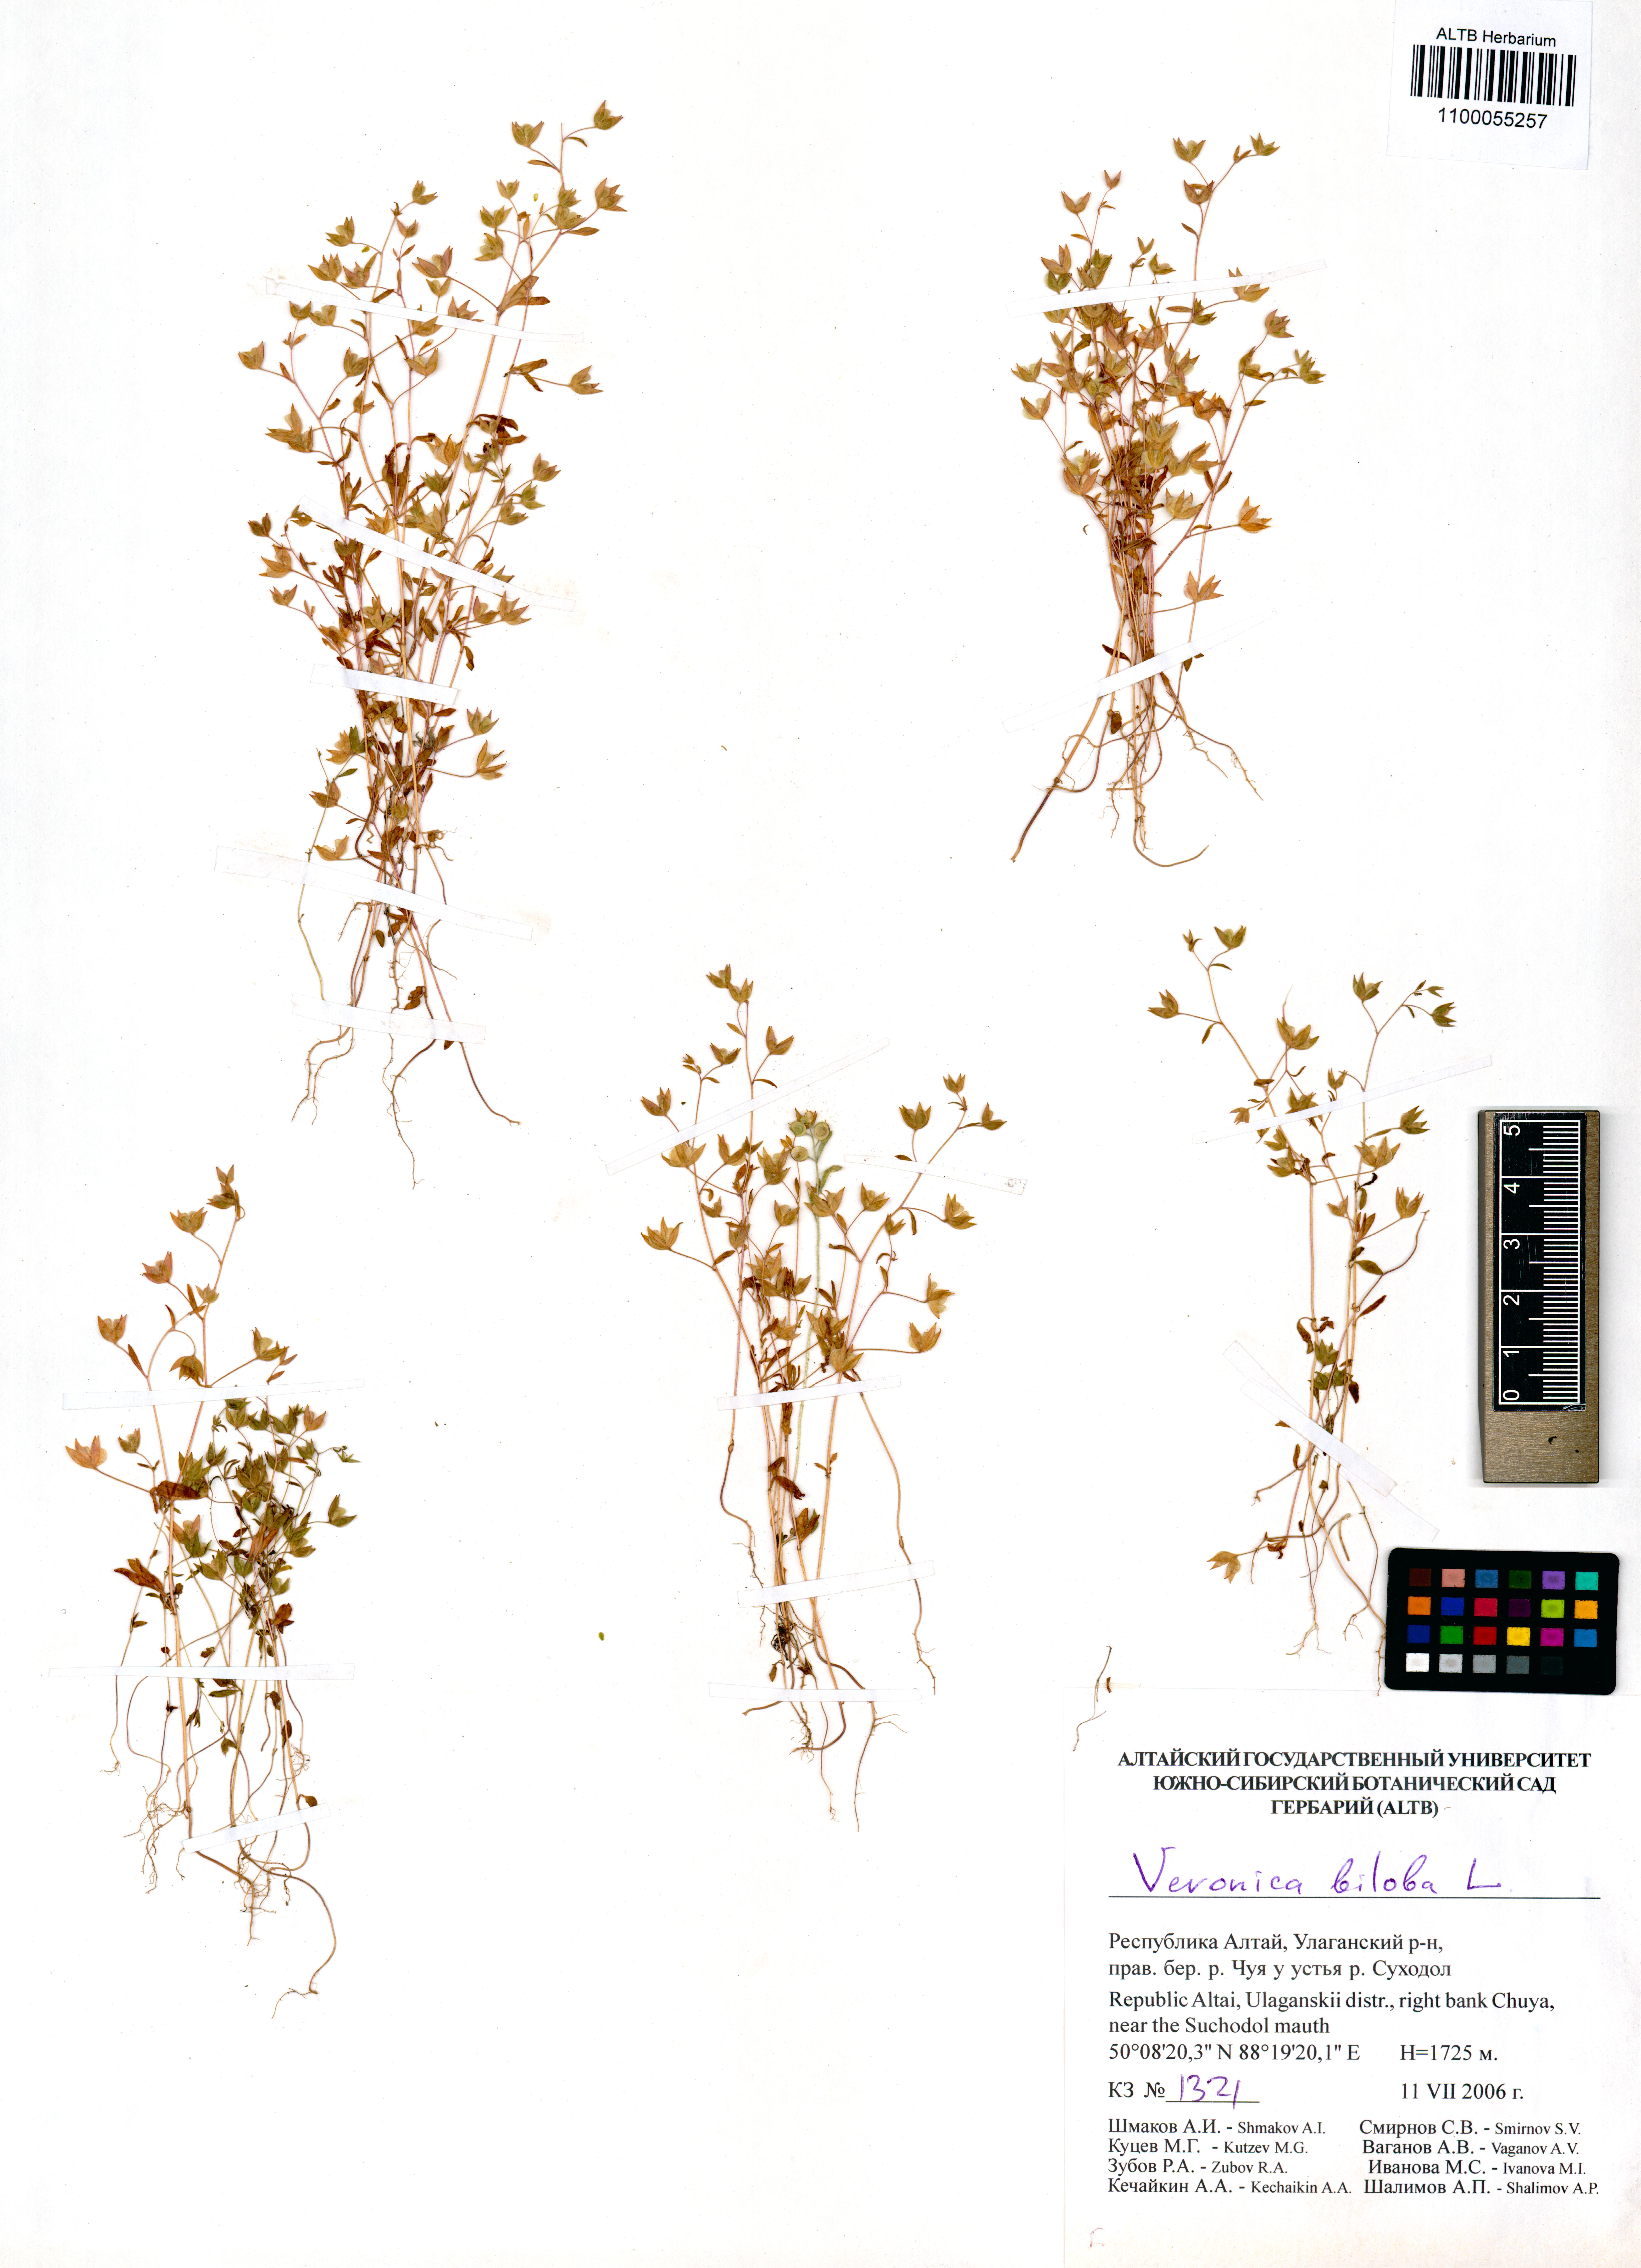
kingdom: Plantae
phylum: Tracheophyta
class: Magnoliopsida
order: Lamiales
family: Plantaginaceae
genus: Veronica
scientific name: Veronica biloba
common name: Twolobe speedwell
